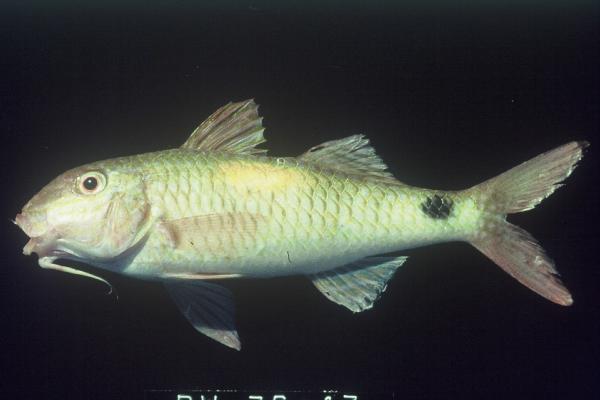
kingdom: Animalia
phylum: Chordata
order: Perciformes
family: Mullidae
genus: Parupeneus
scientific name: Parupeneus indicus
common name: Indian goatfish
